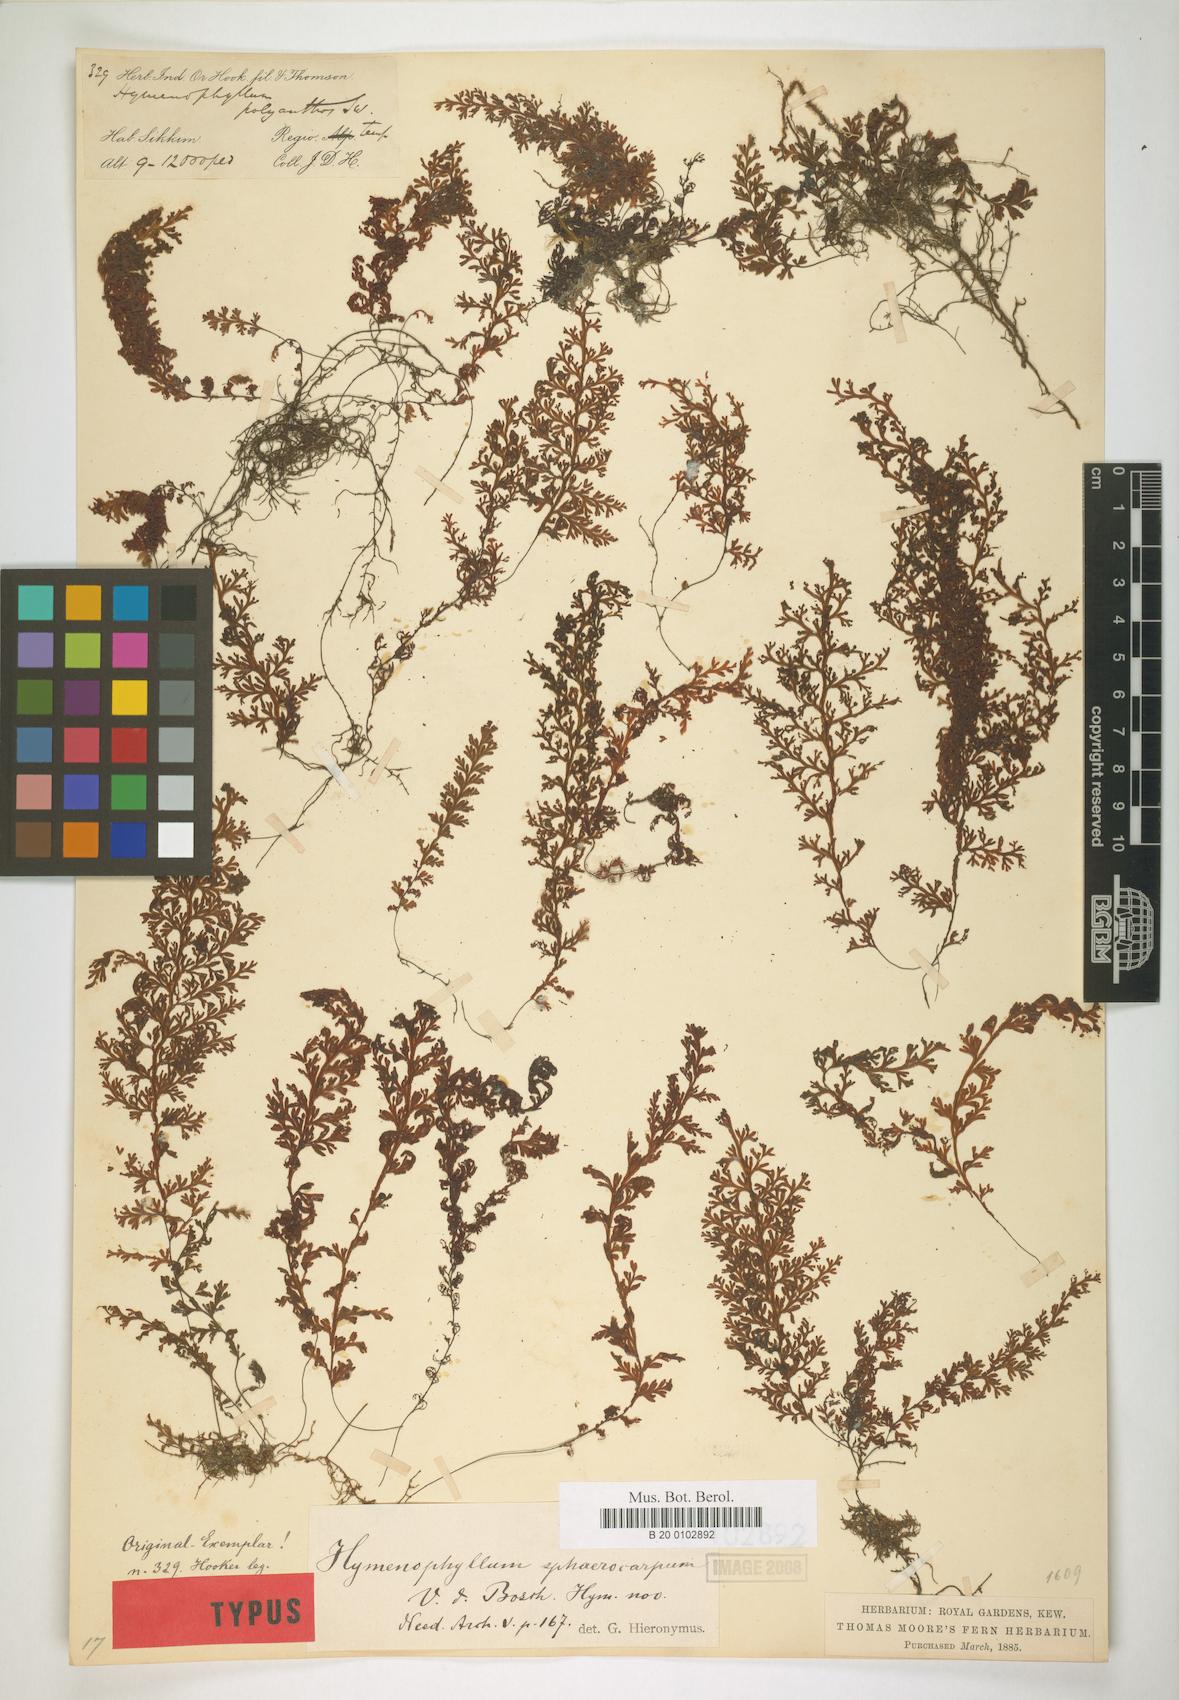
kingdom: Plantae
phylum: Tracheophyta
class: Polypodiopsida
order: Hymenophyllales
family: Hymenophyllaceae
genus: Hymenophyllum
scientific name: Hymenophyllum fumarioides
